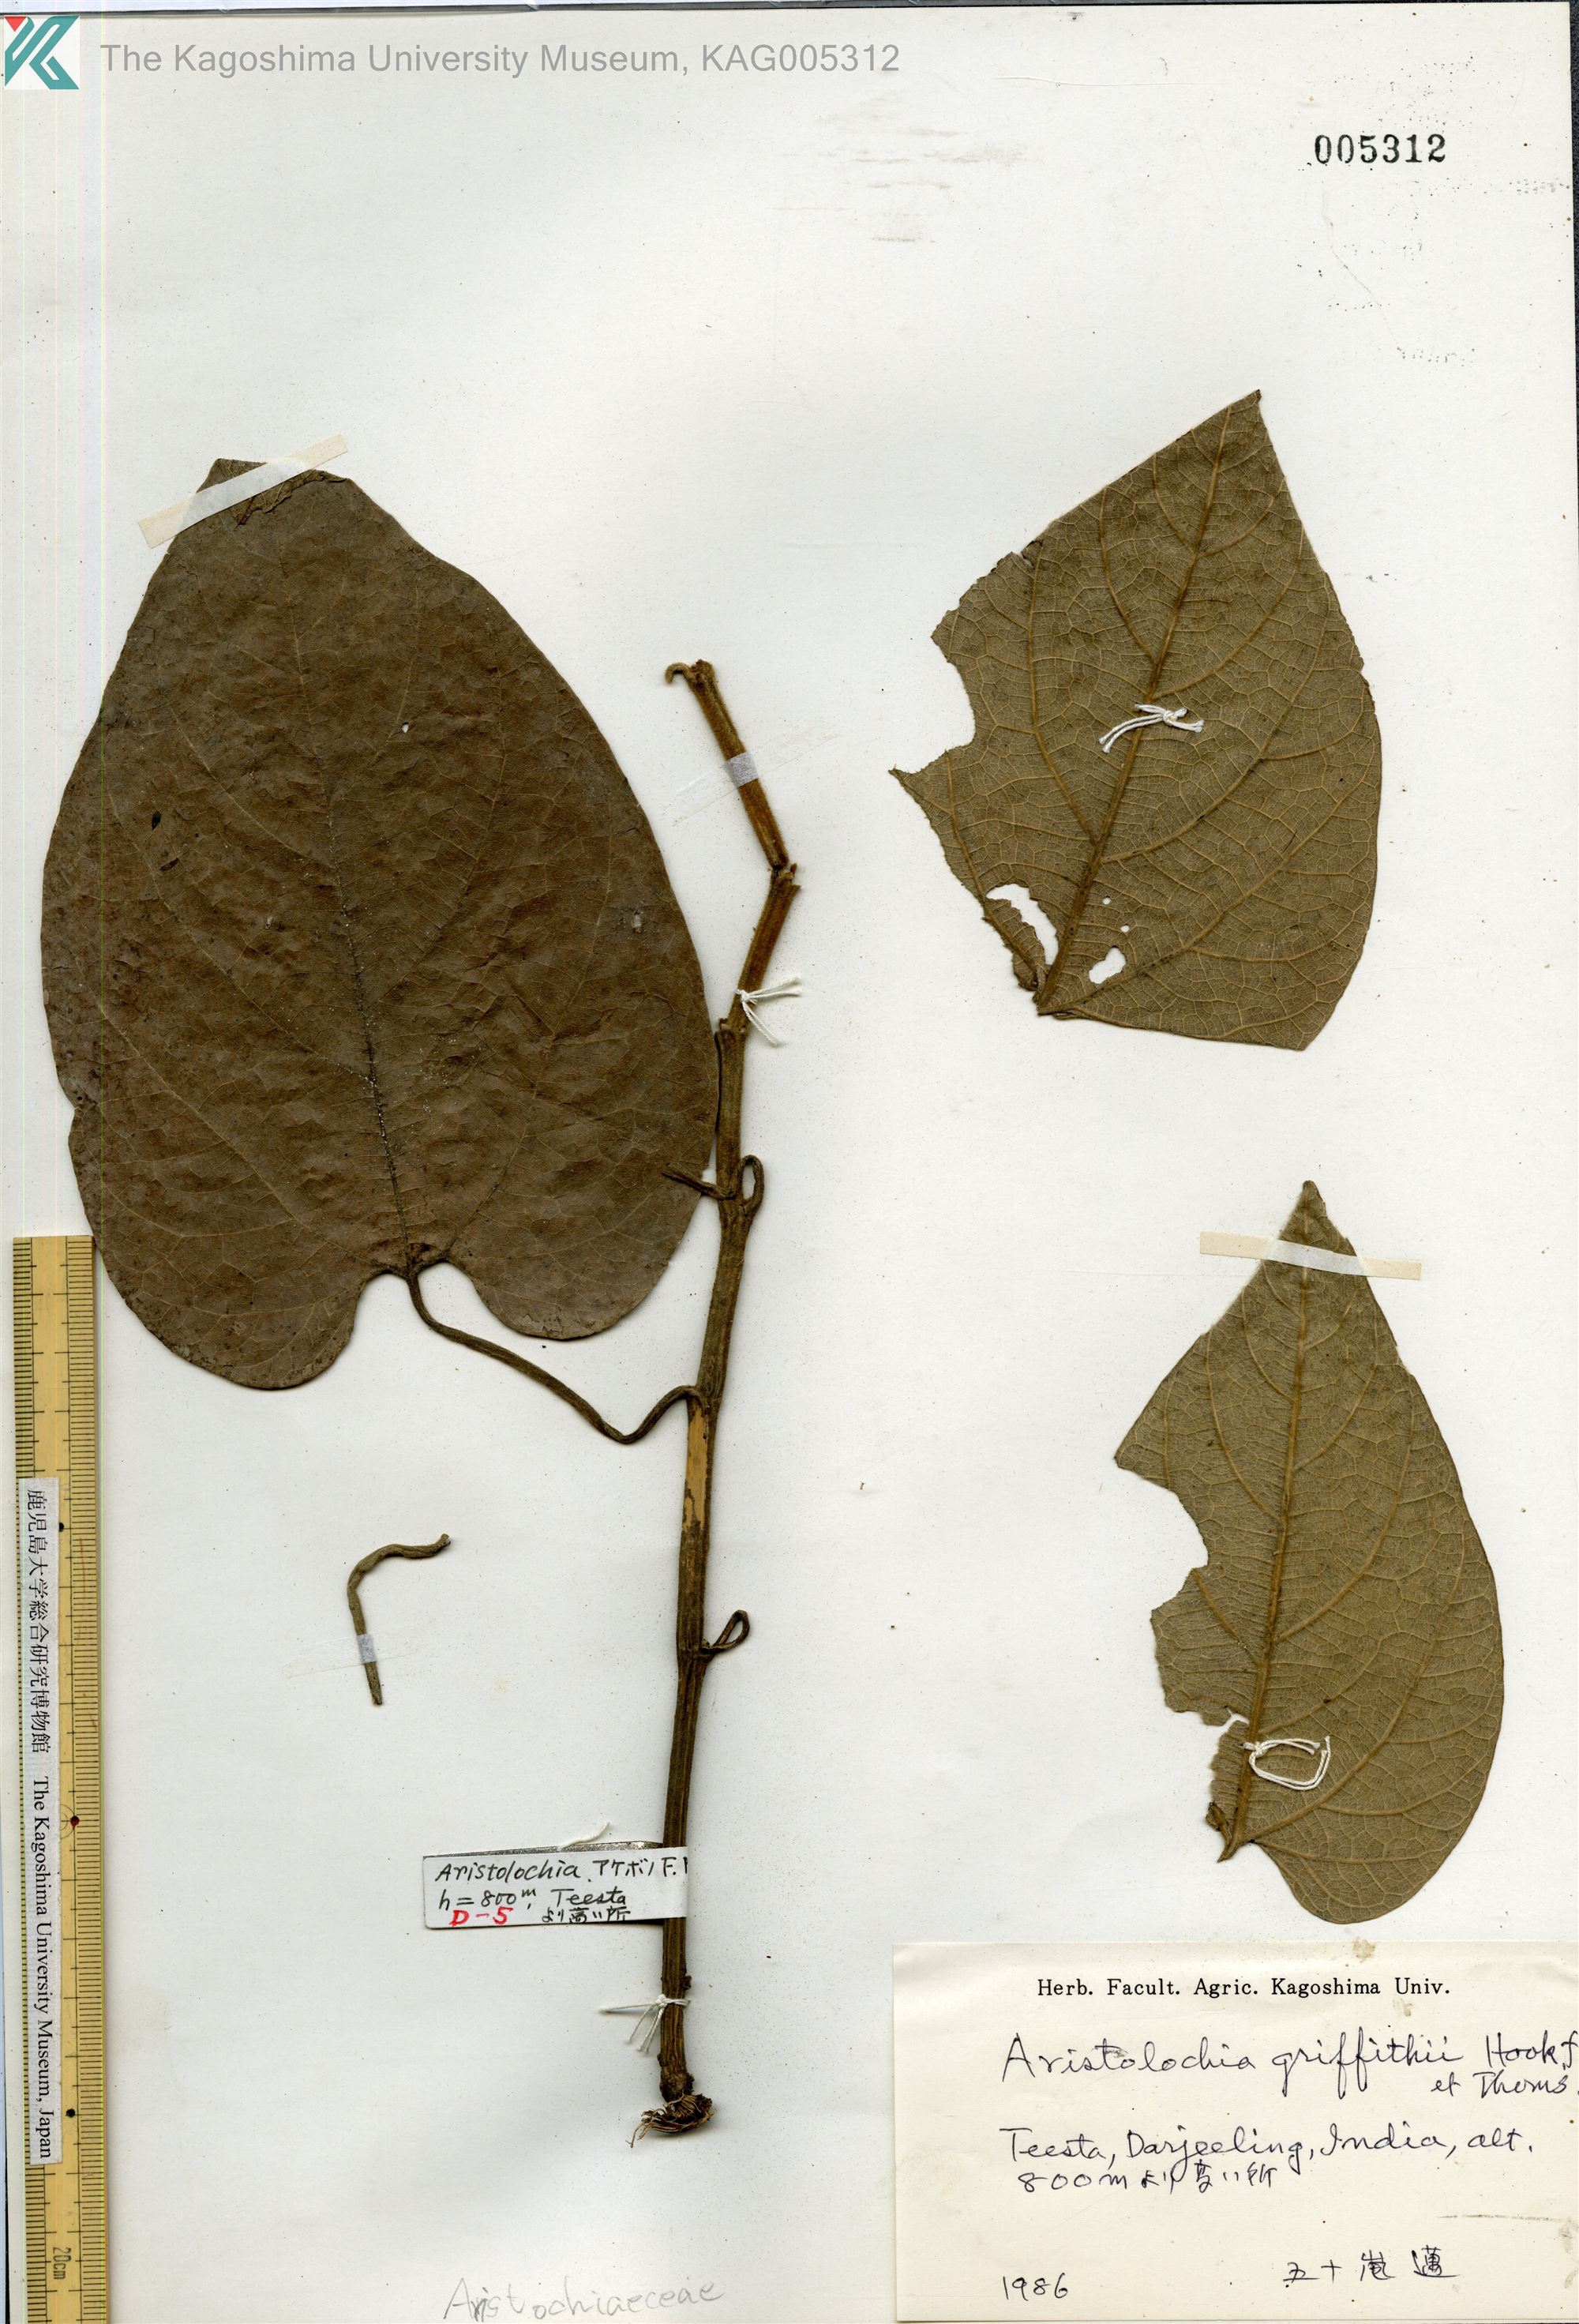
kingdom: Plantae
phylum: Tracheophyta
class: Magnoliopsida
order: Piperales
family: Aristolochiaceae
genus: Isotrema
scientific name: Isotrema griffithii
